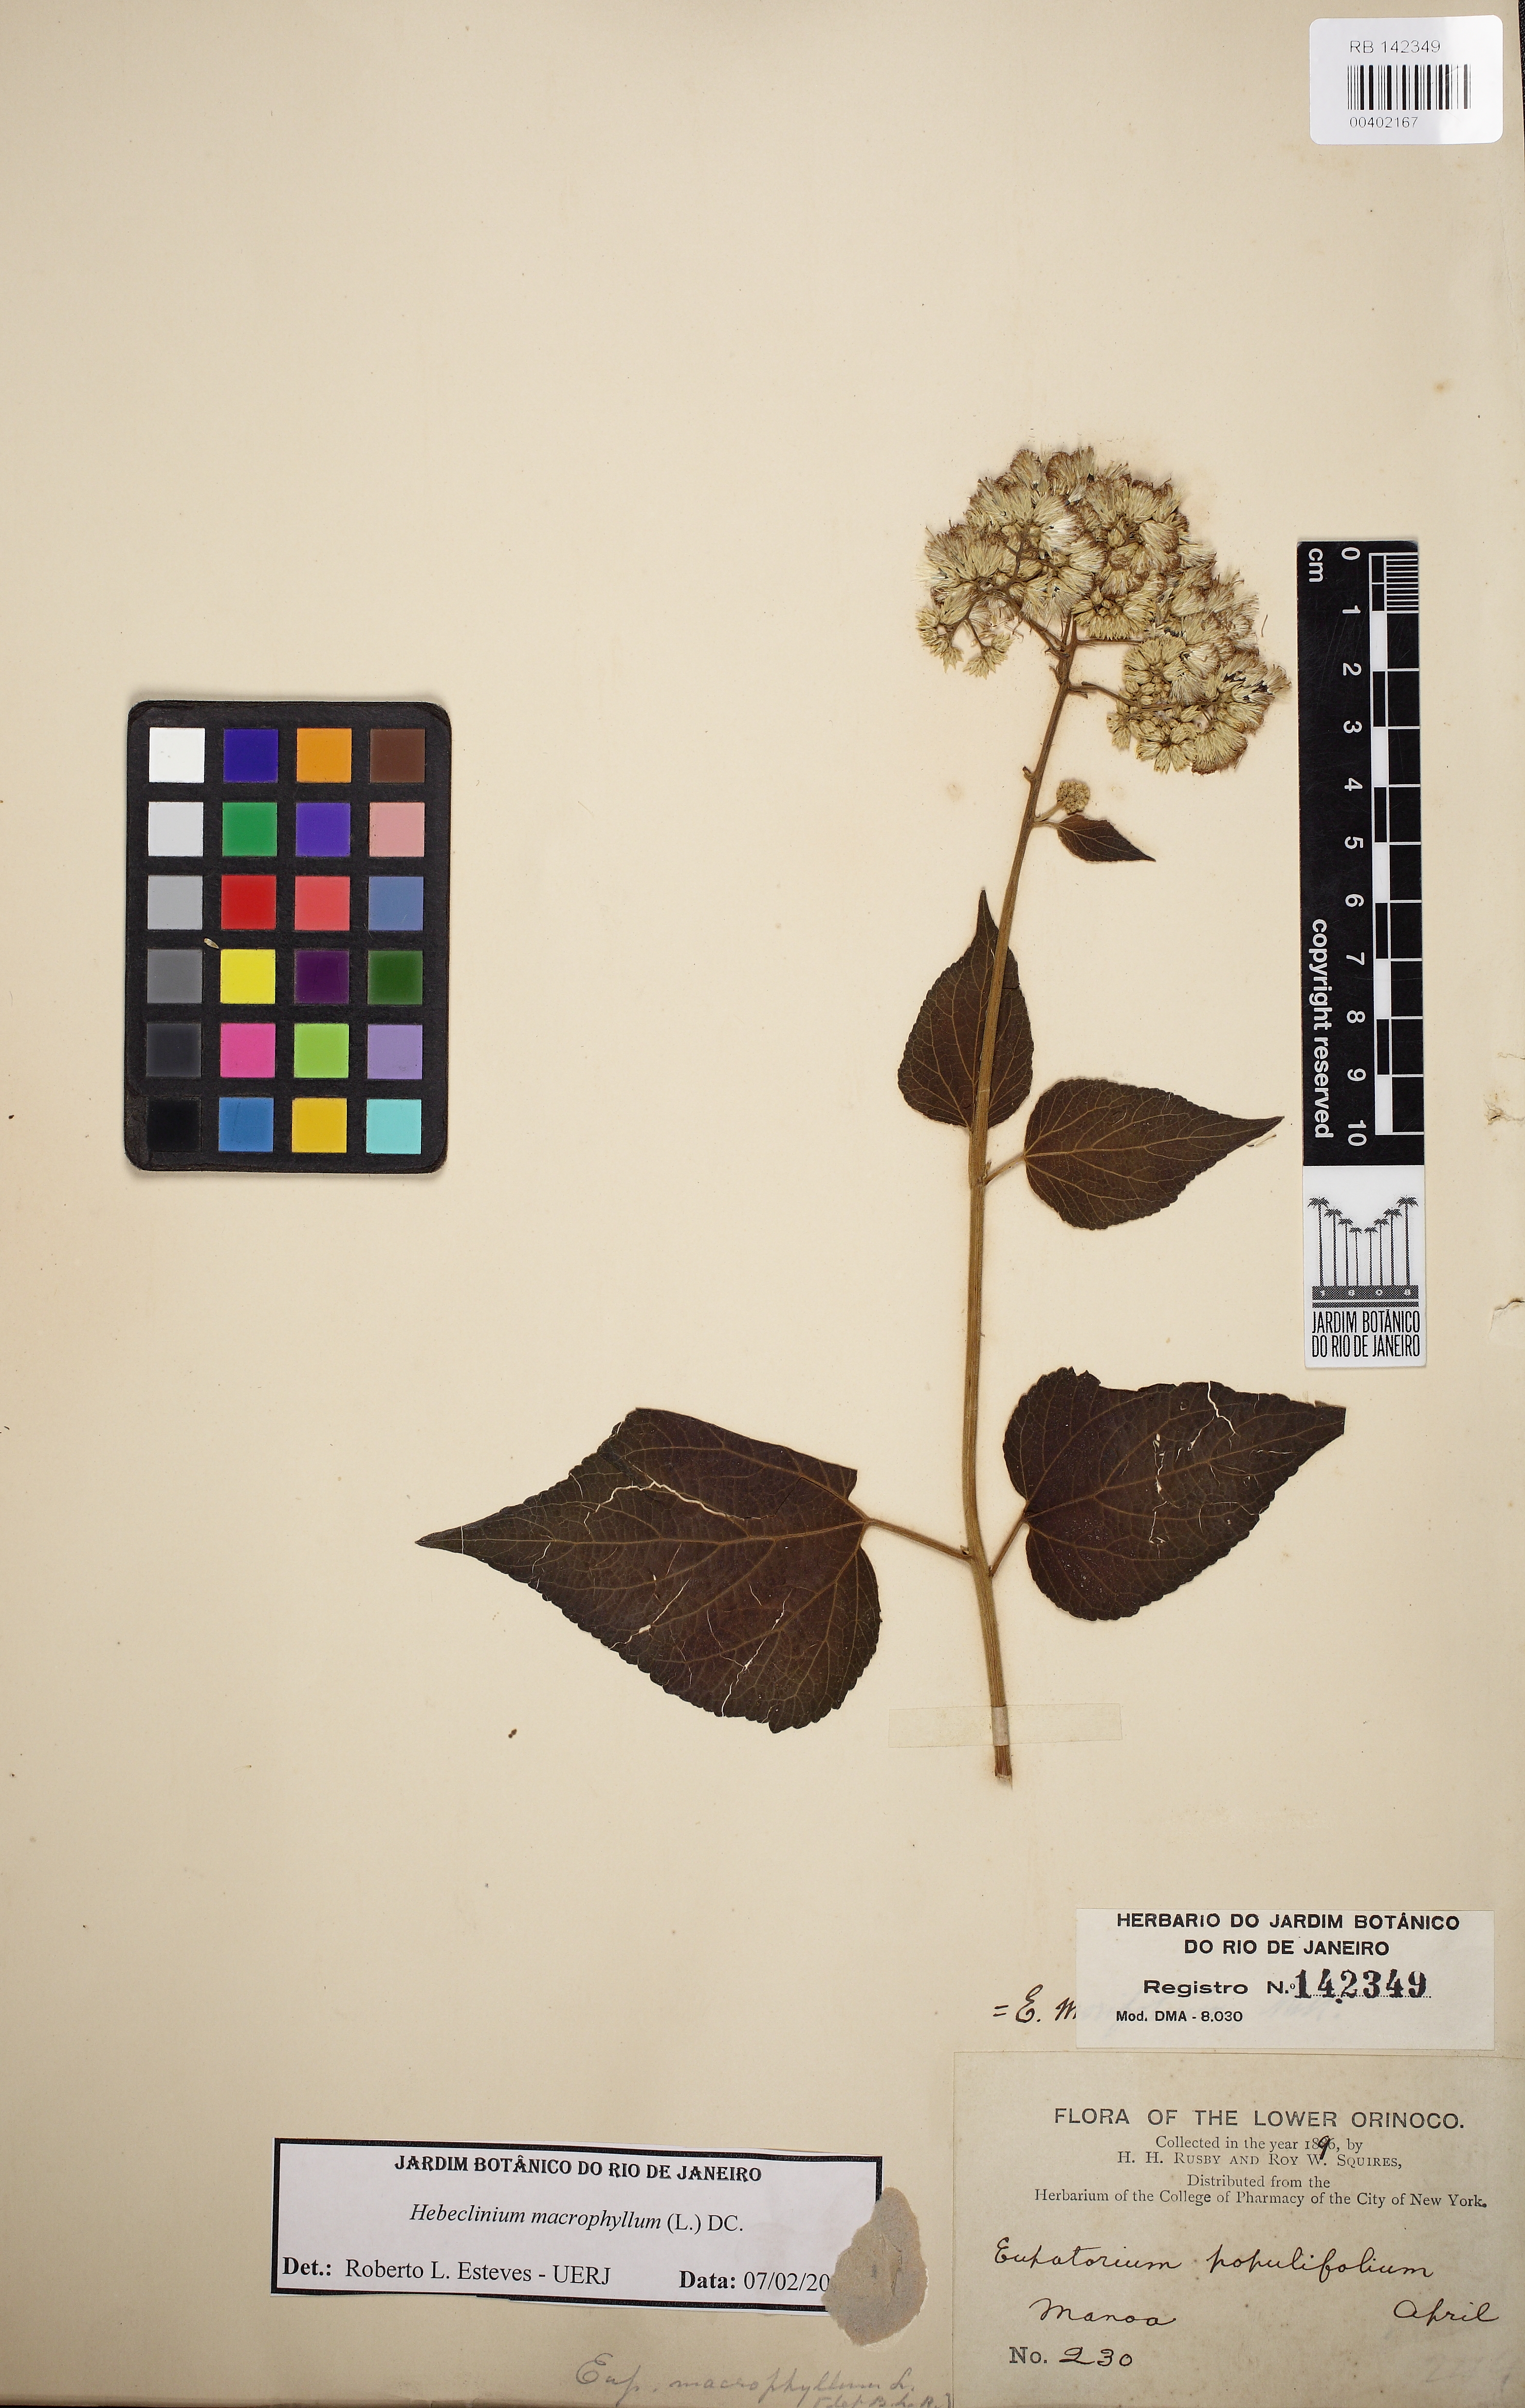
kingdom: Plantae
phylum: Tracheophyta
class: Magnoliopsida
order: Asterales
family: Asteraceae
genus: Hebeclinium
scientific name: Hebeclinium macrophyllum
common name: Largeleaf thoroughwort
